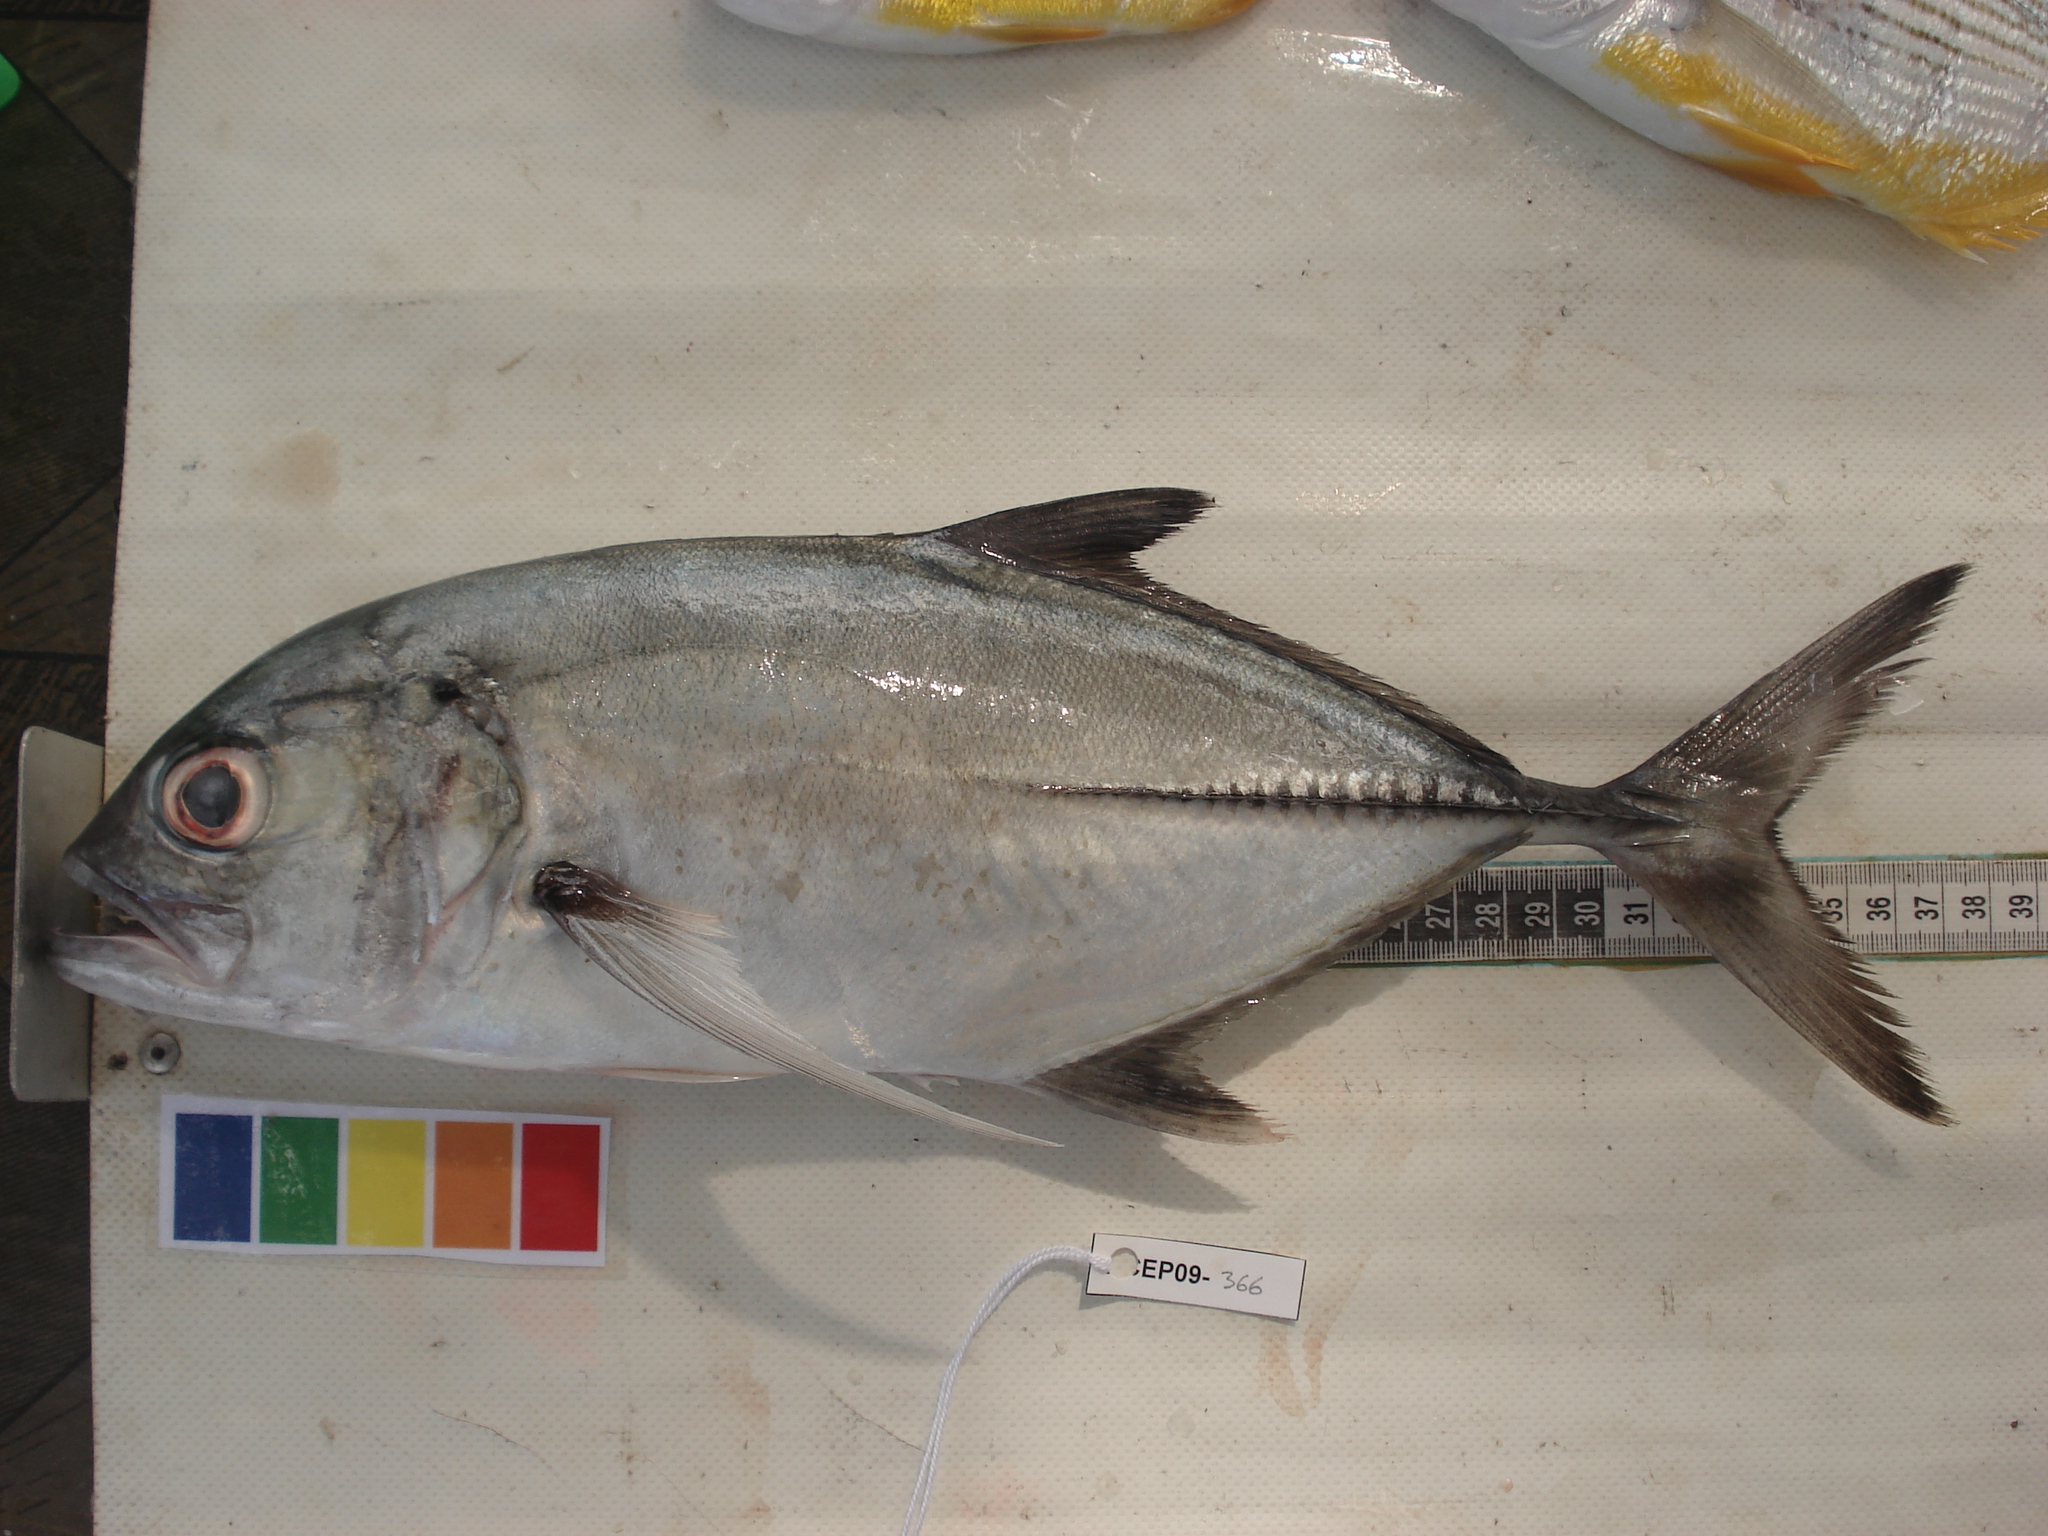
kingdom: Animalia
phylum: Chordata
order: Perciformes
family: Carangidae
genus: Caranx
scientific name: Caranx sexfasciatus
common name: Bigeye trevally
